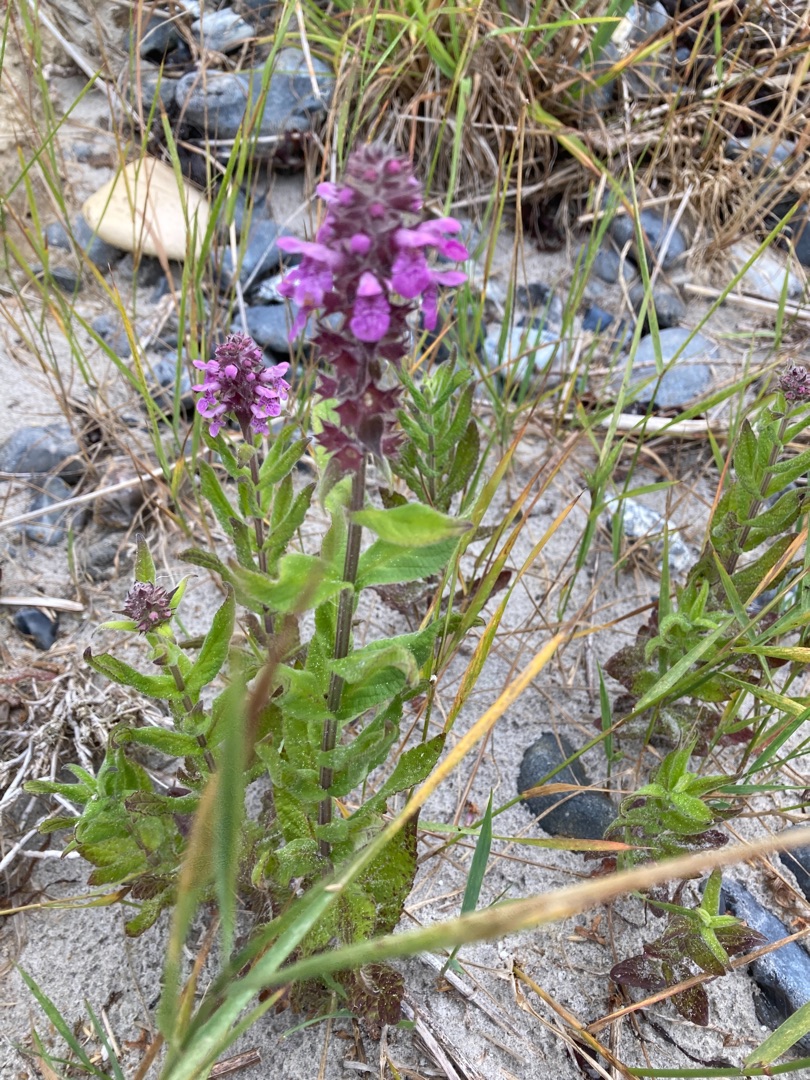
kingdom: Plantae
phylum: Tracheophyta
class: Magnoliopsida
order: Lamiales
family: Lamiaceae
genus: Stachys
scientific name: Stachys palustris
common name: Kær-galtetand
